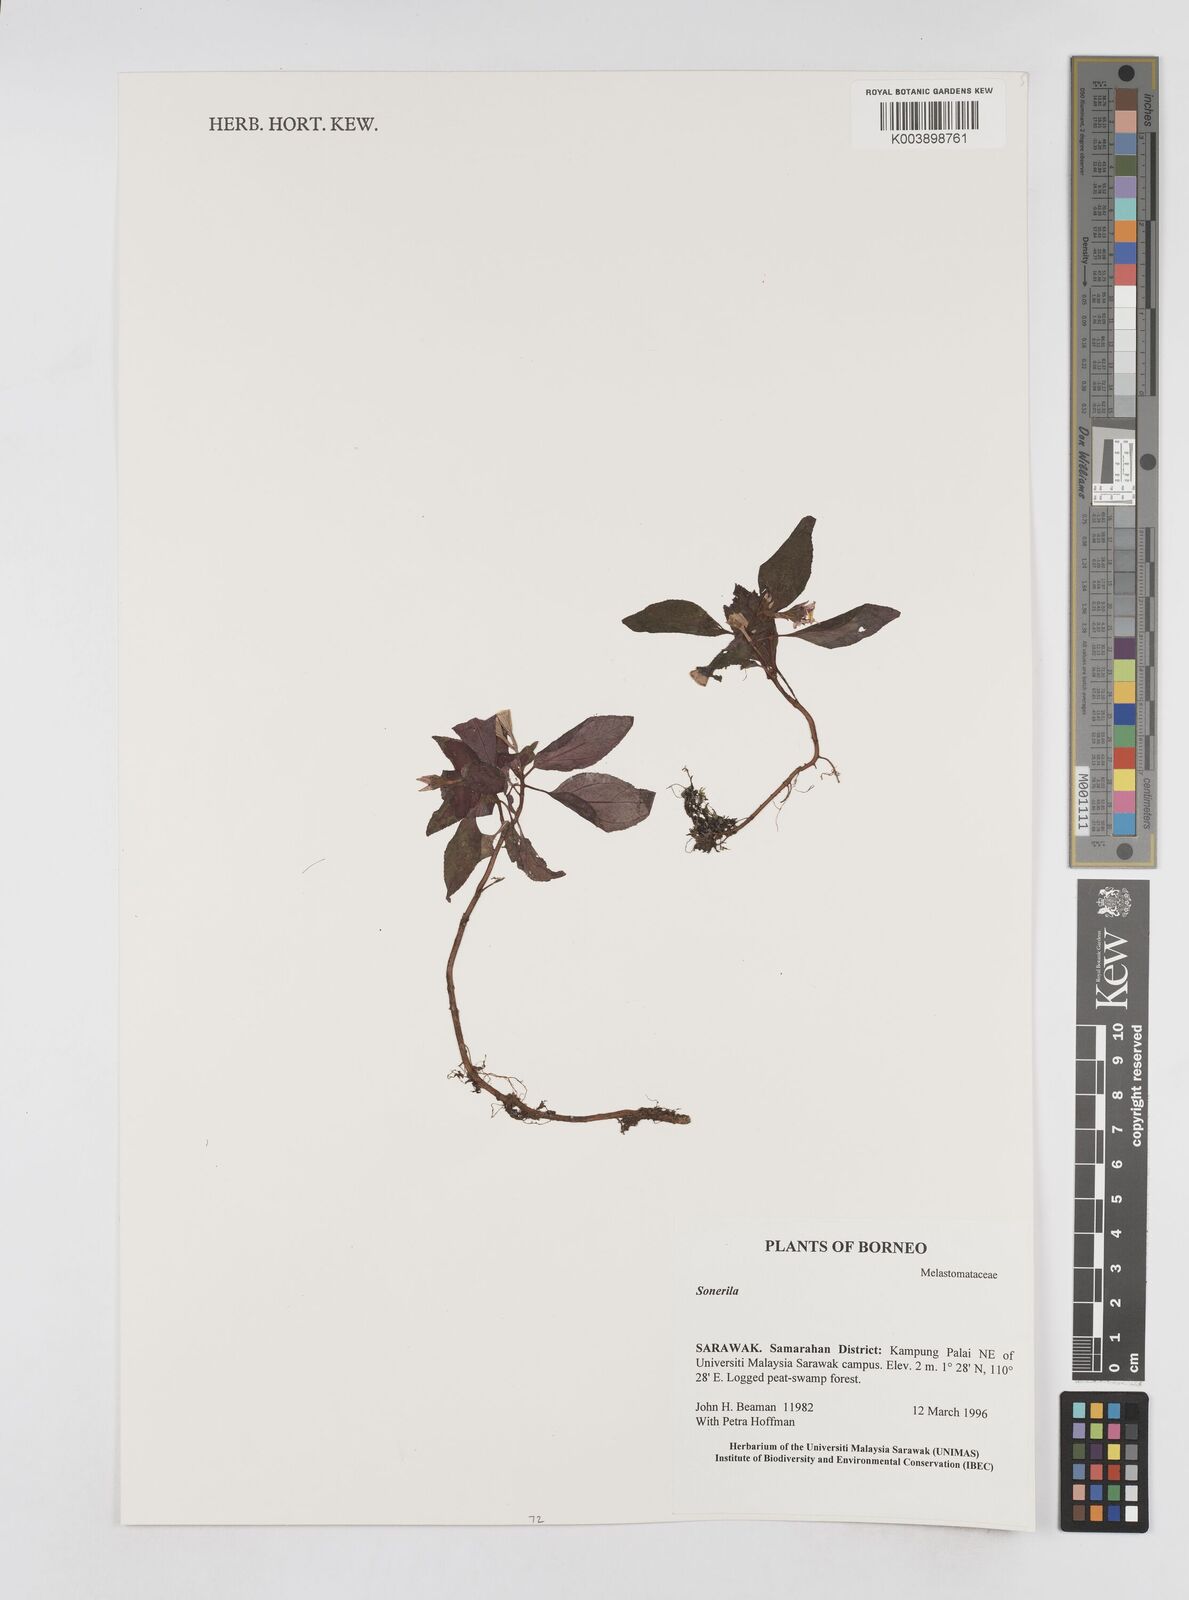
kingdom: Plantae
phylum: Tracheophyta
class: Magnoliopsida
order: Myrtales
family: Melastomataceae
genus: Sonerila
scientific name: Sonerila
